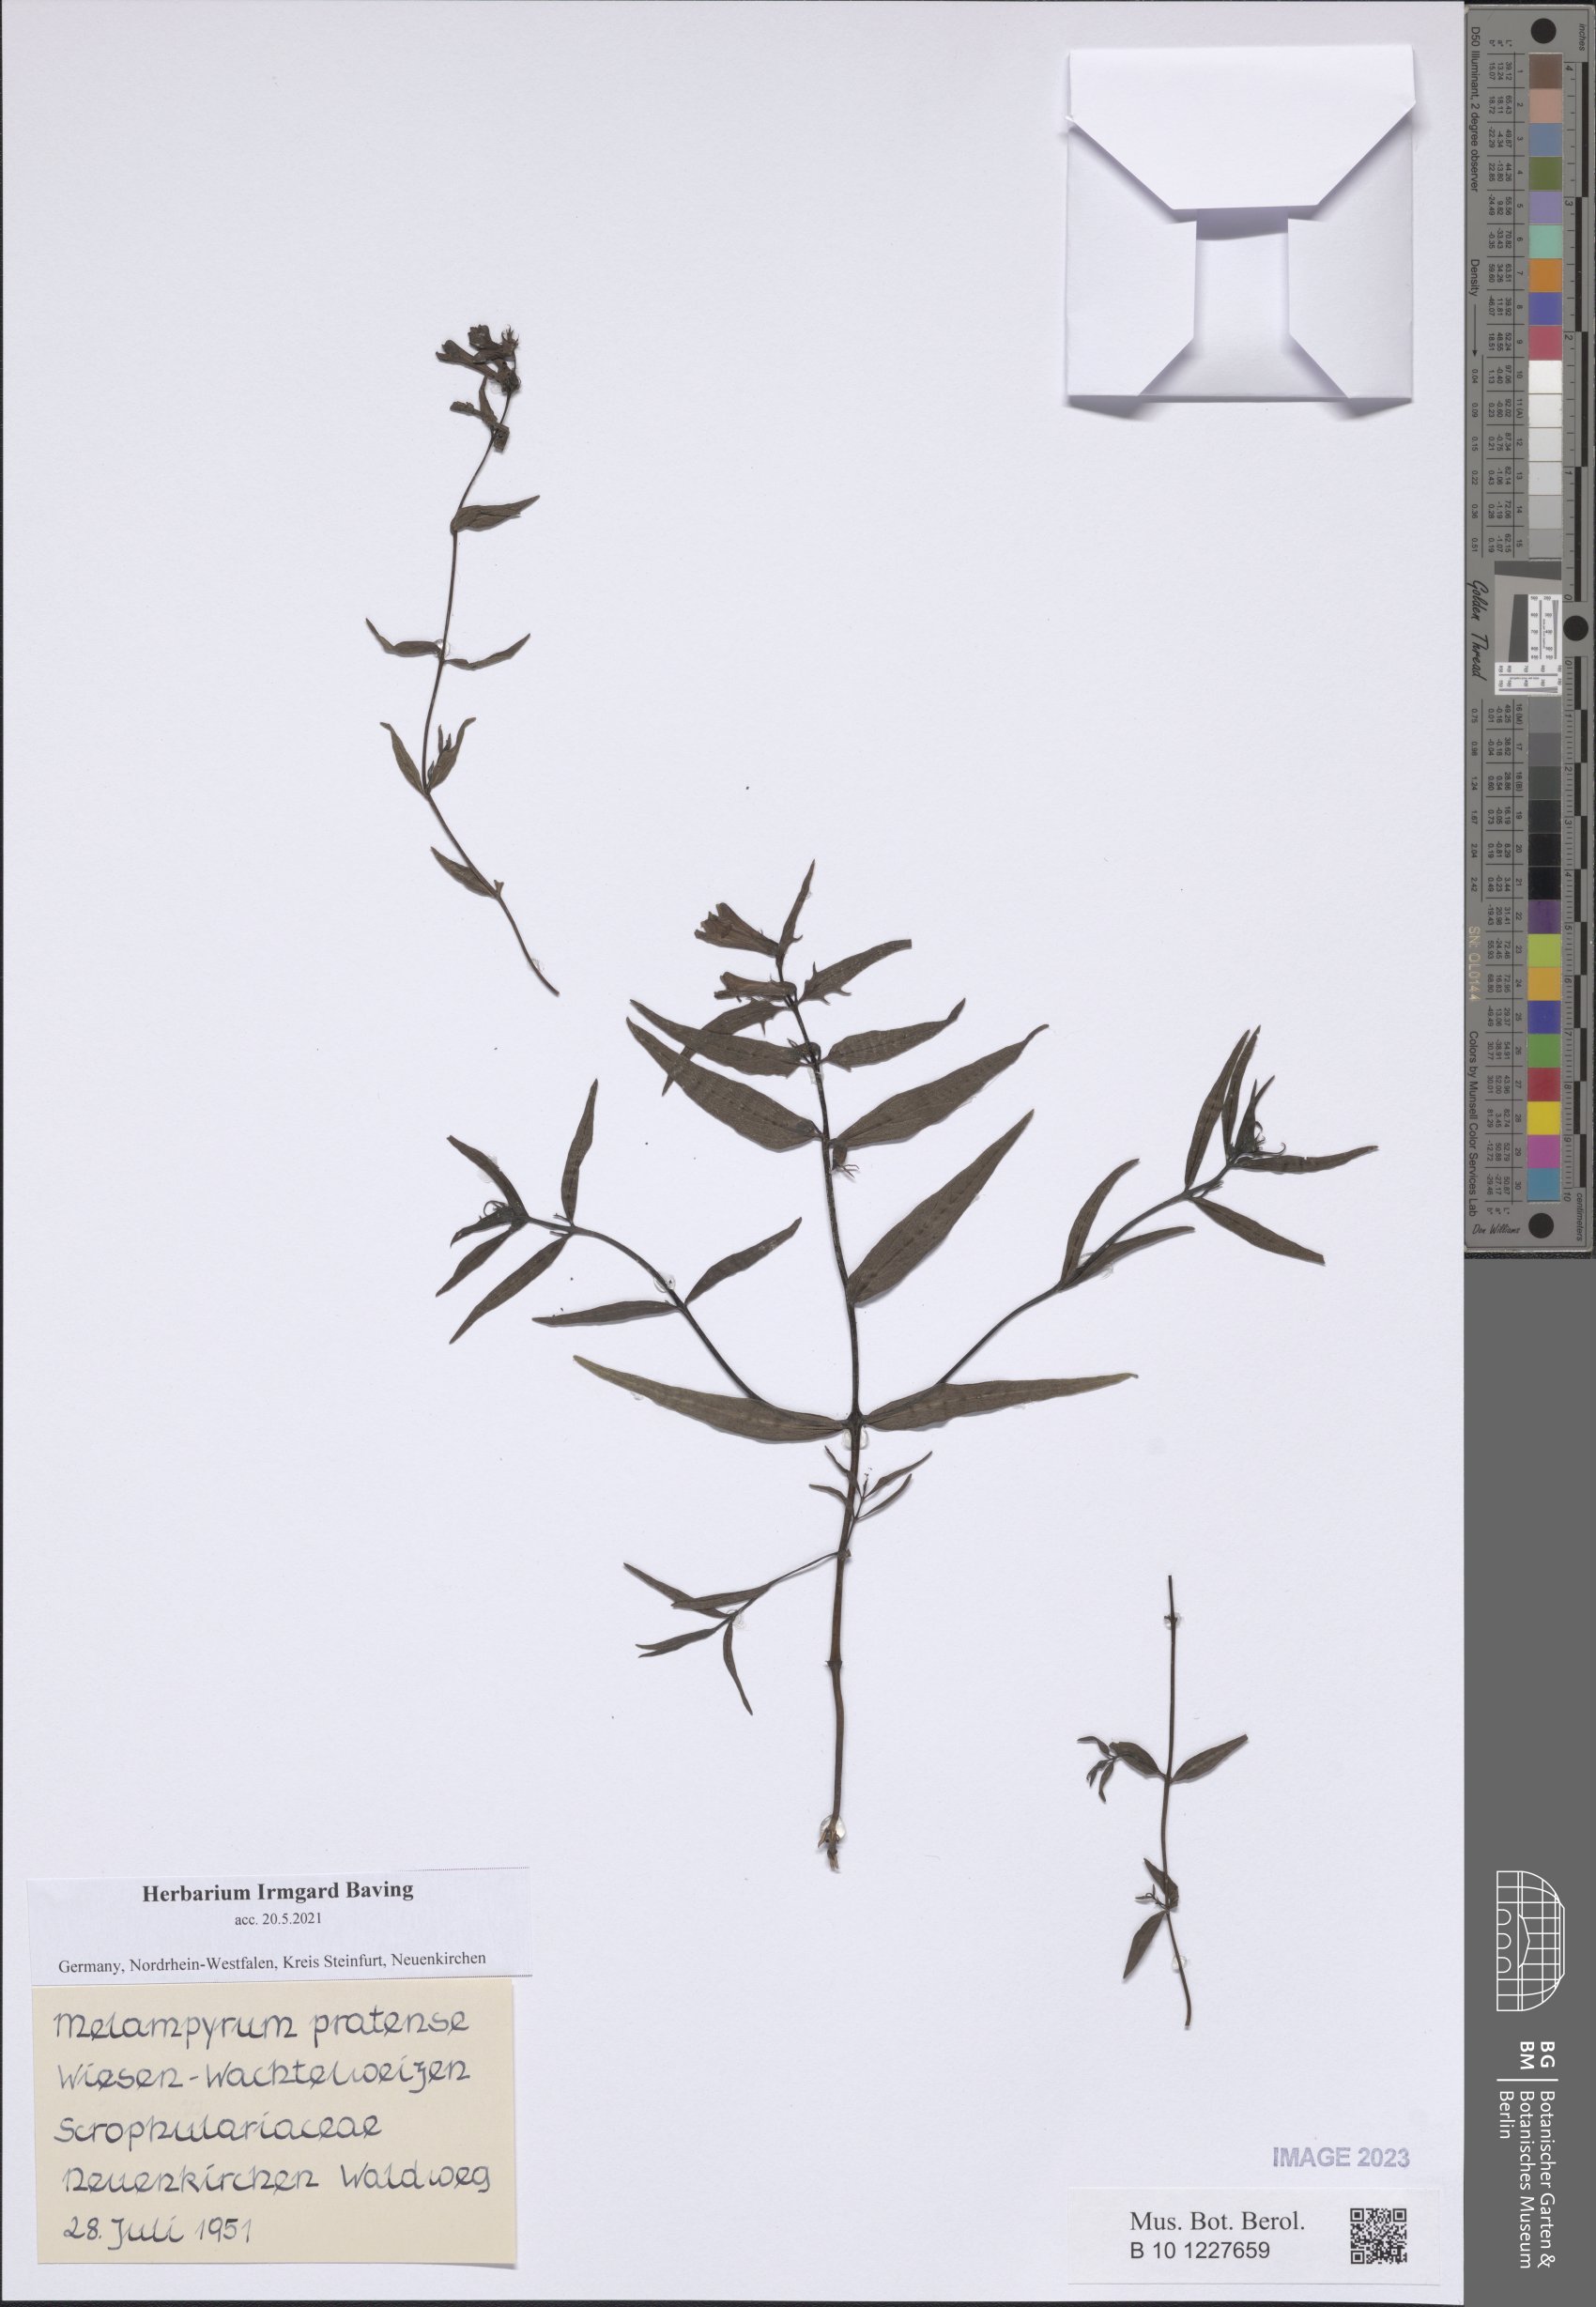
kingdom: Plantae
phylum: Tracheophyta
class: Magnoliopsida
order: Lamiales
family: Orobanchaceae
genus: Melampyrum
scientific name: Melampyrum pratense
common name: Common cow-wheat
